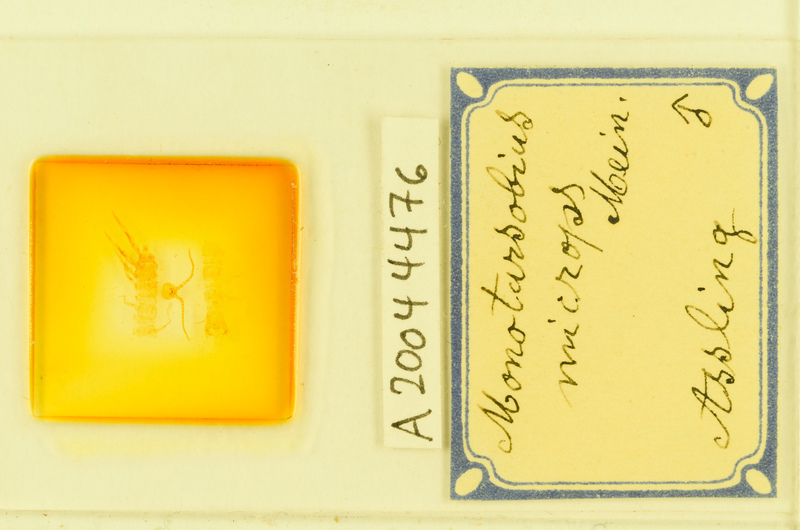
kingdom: Animalia
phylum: Arthropoda
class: Chilopoda
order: Lithobiomorpha
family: Lithobiidae
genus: Monotarsobius
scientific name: Monotarsobius microps
